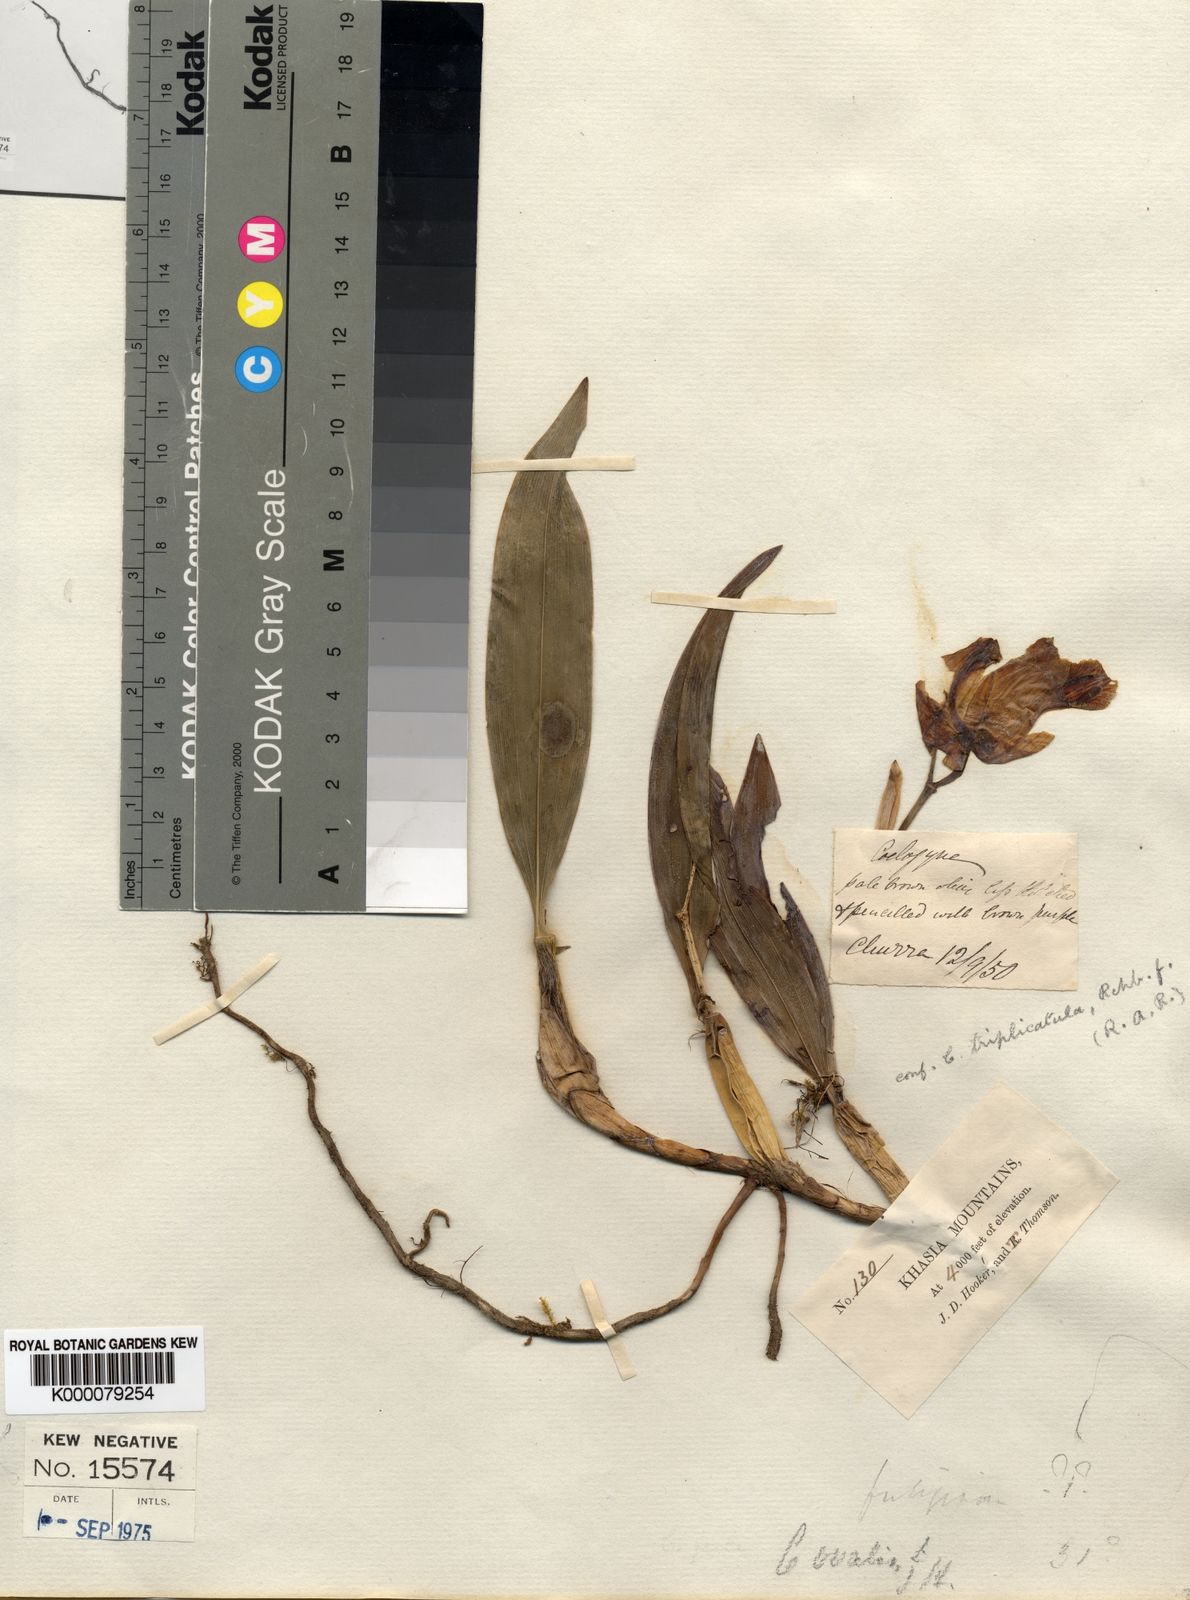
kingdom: Plantae
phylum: Tracheophyta
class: Liliopsida
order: Asparagales
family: Orchidaceae
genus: Coelogyne
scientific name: Coelogyne
